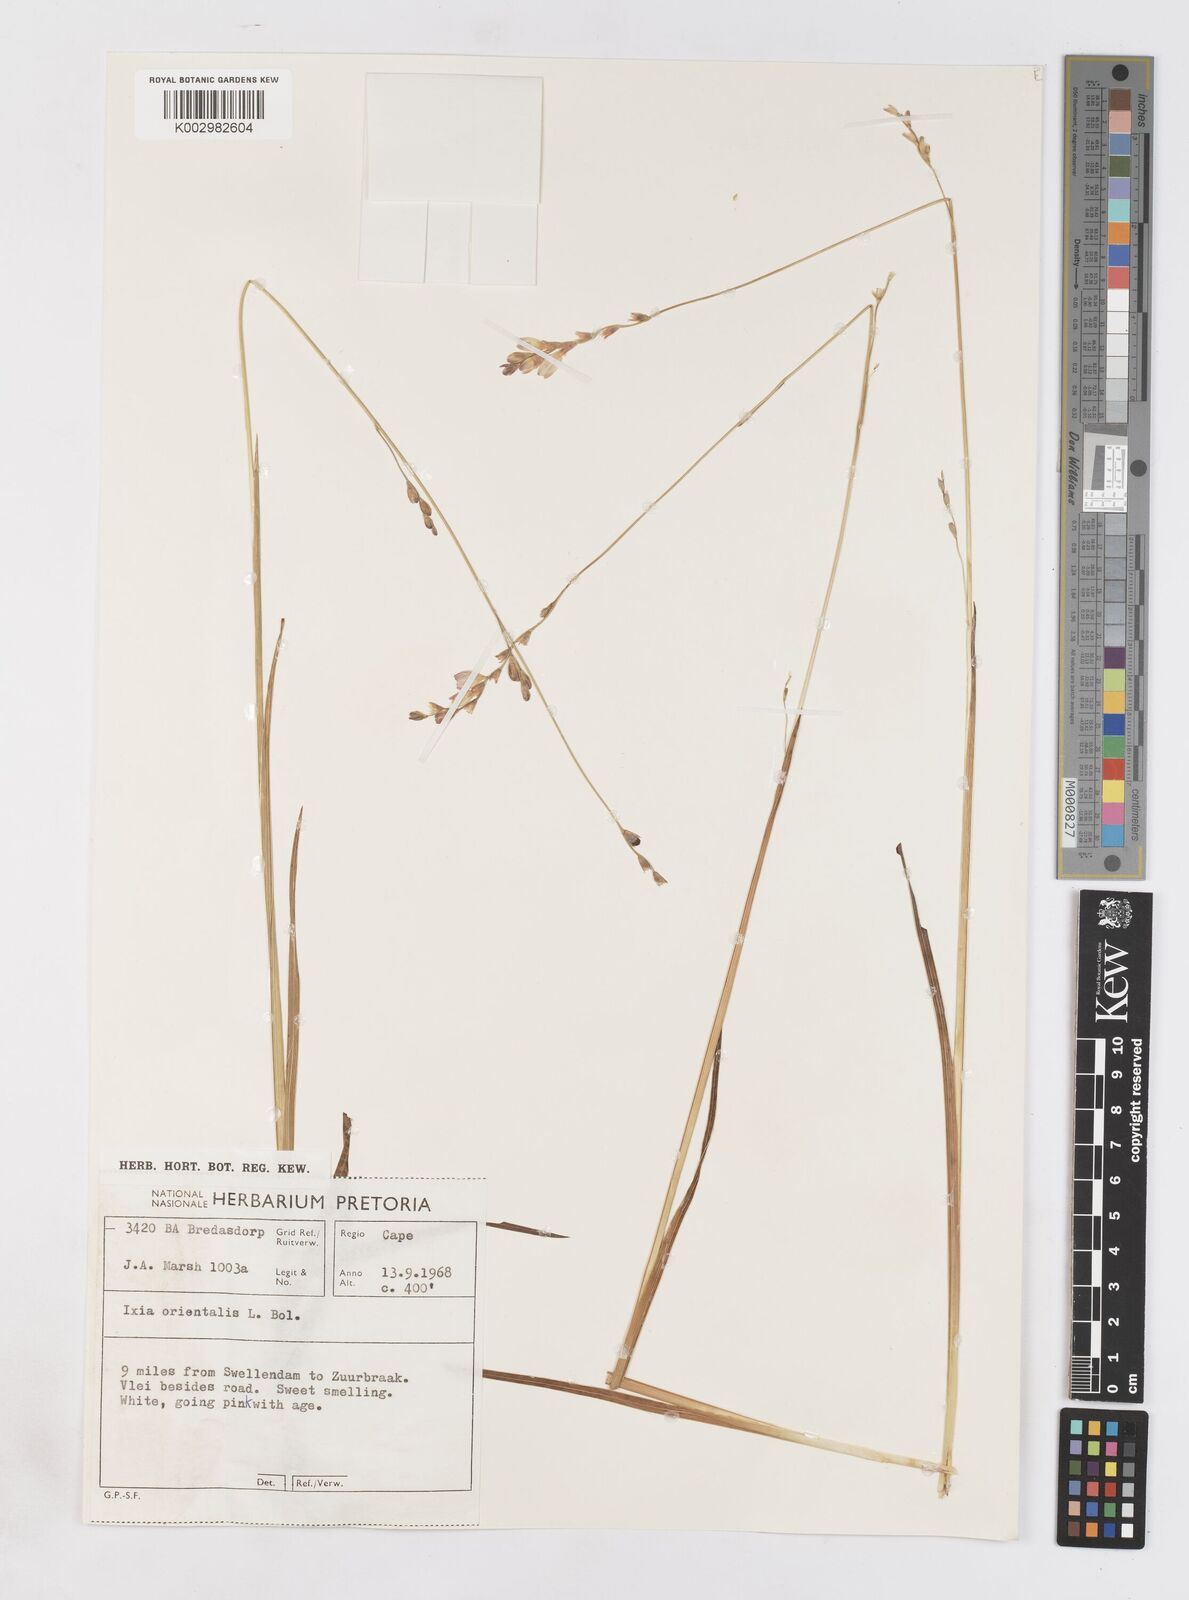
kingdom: Plantae
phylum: Tracheophyta
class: Liliopsida
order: Asparagales
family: Iridaceae
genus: Ixia
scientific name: Ixia orientalis
